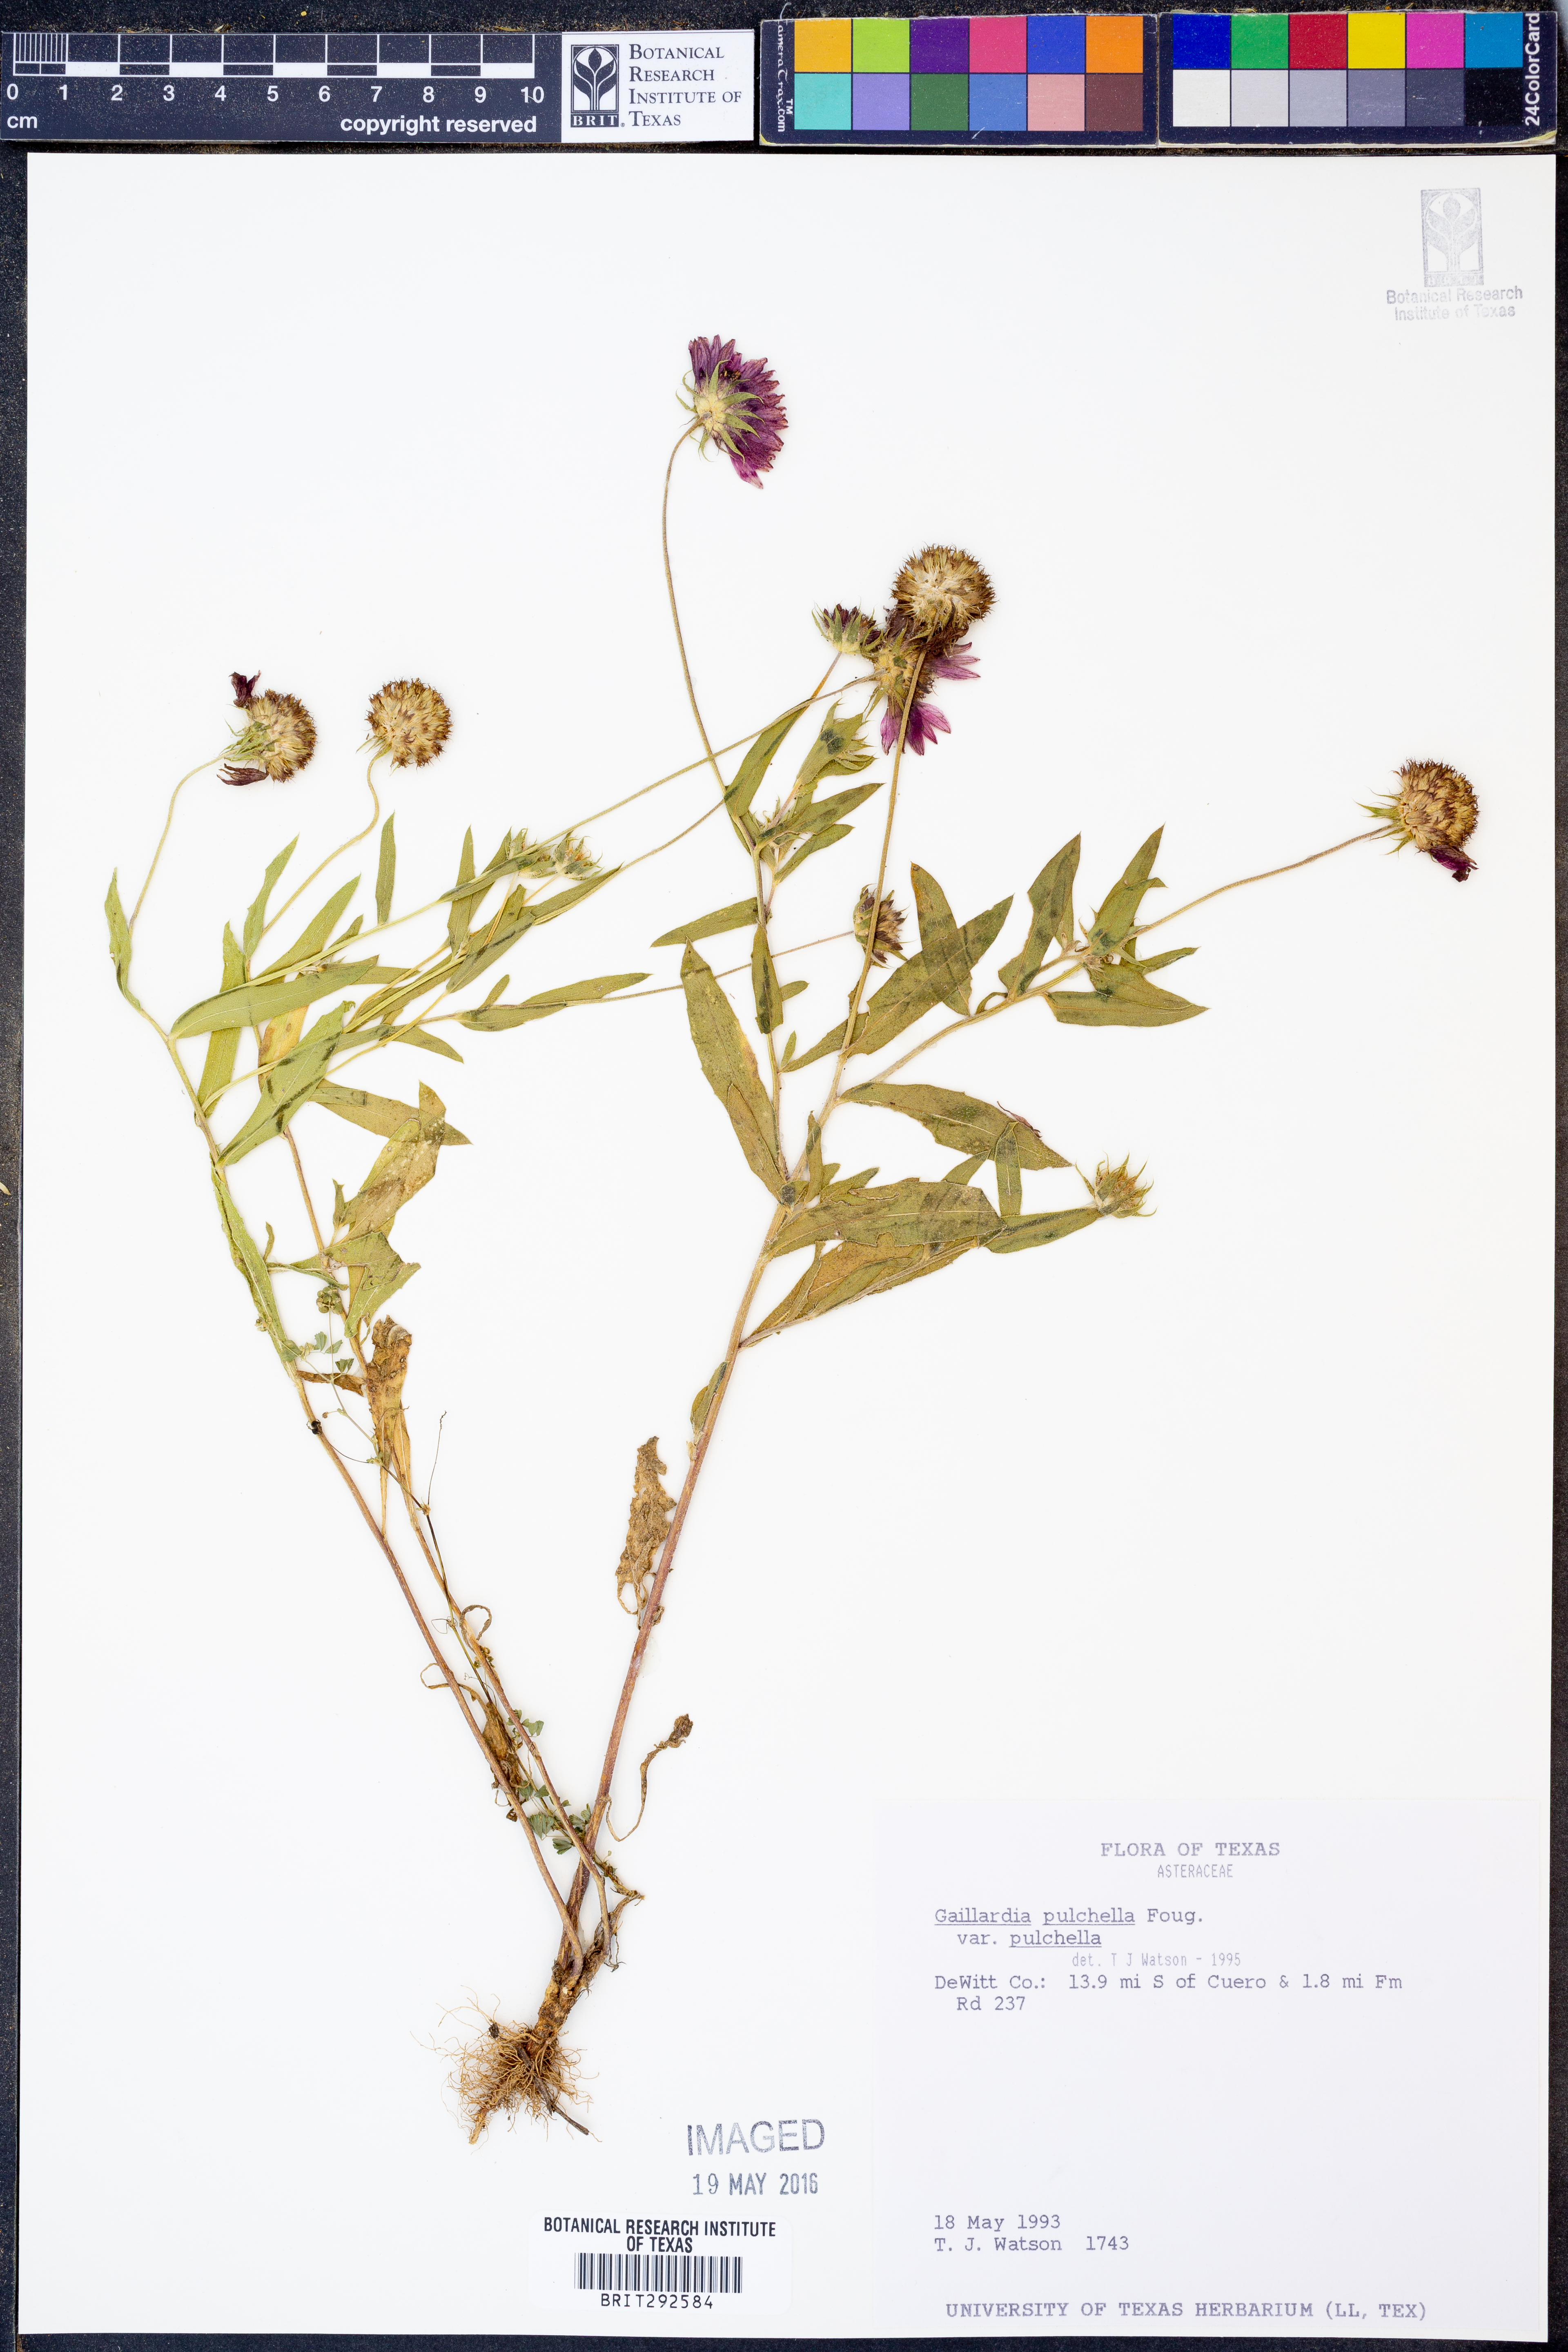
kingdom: Plantae
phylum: Tracheophyta
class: Magnoliopsida
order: Asterales
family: Asteraceae
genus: Gaillardia
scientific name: Gaillardia pulchella
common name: Firewheel
